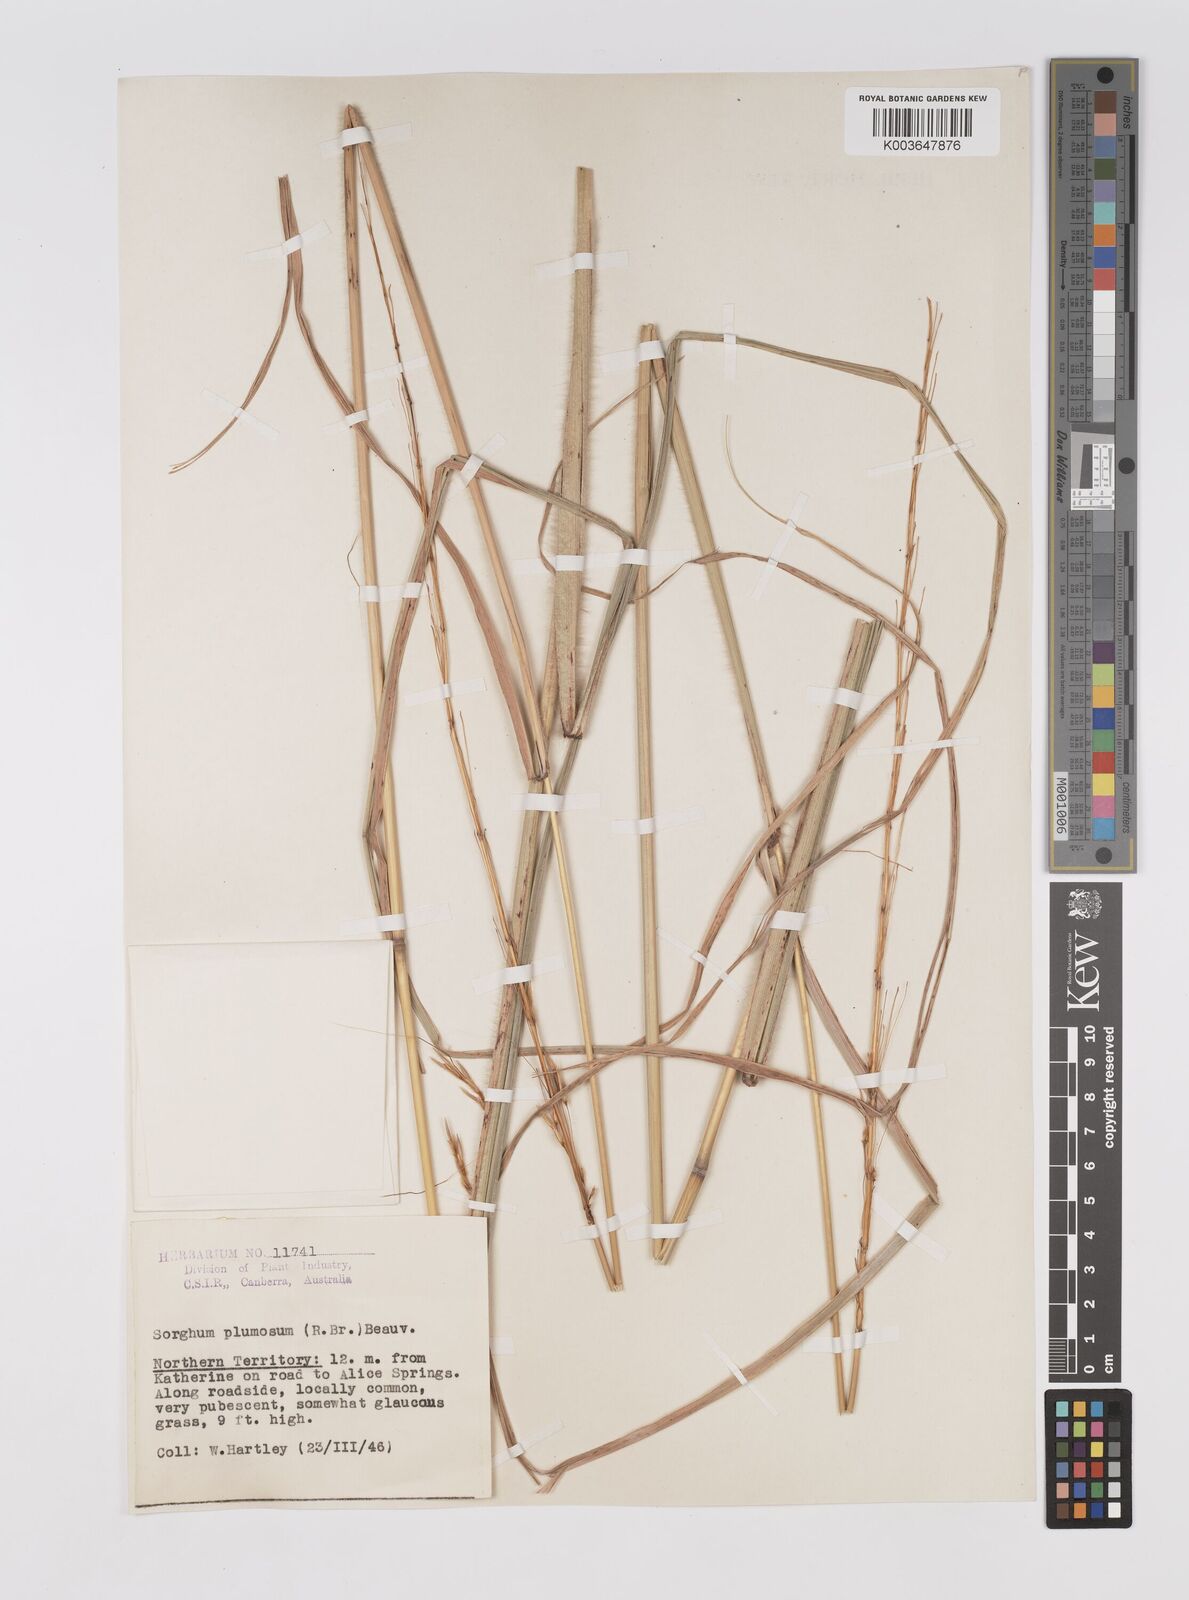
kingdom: Plantae
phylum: Tracheophyta
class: Liliopsida
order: Poales
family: Poaceae
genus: Sarga
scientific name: Sarga plumosa
